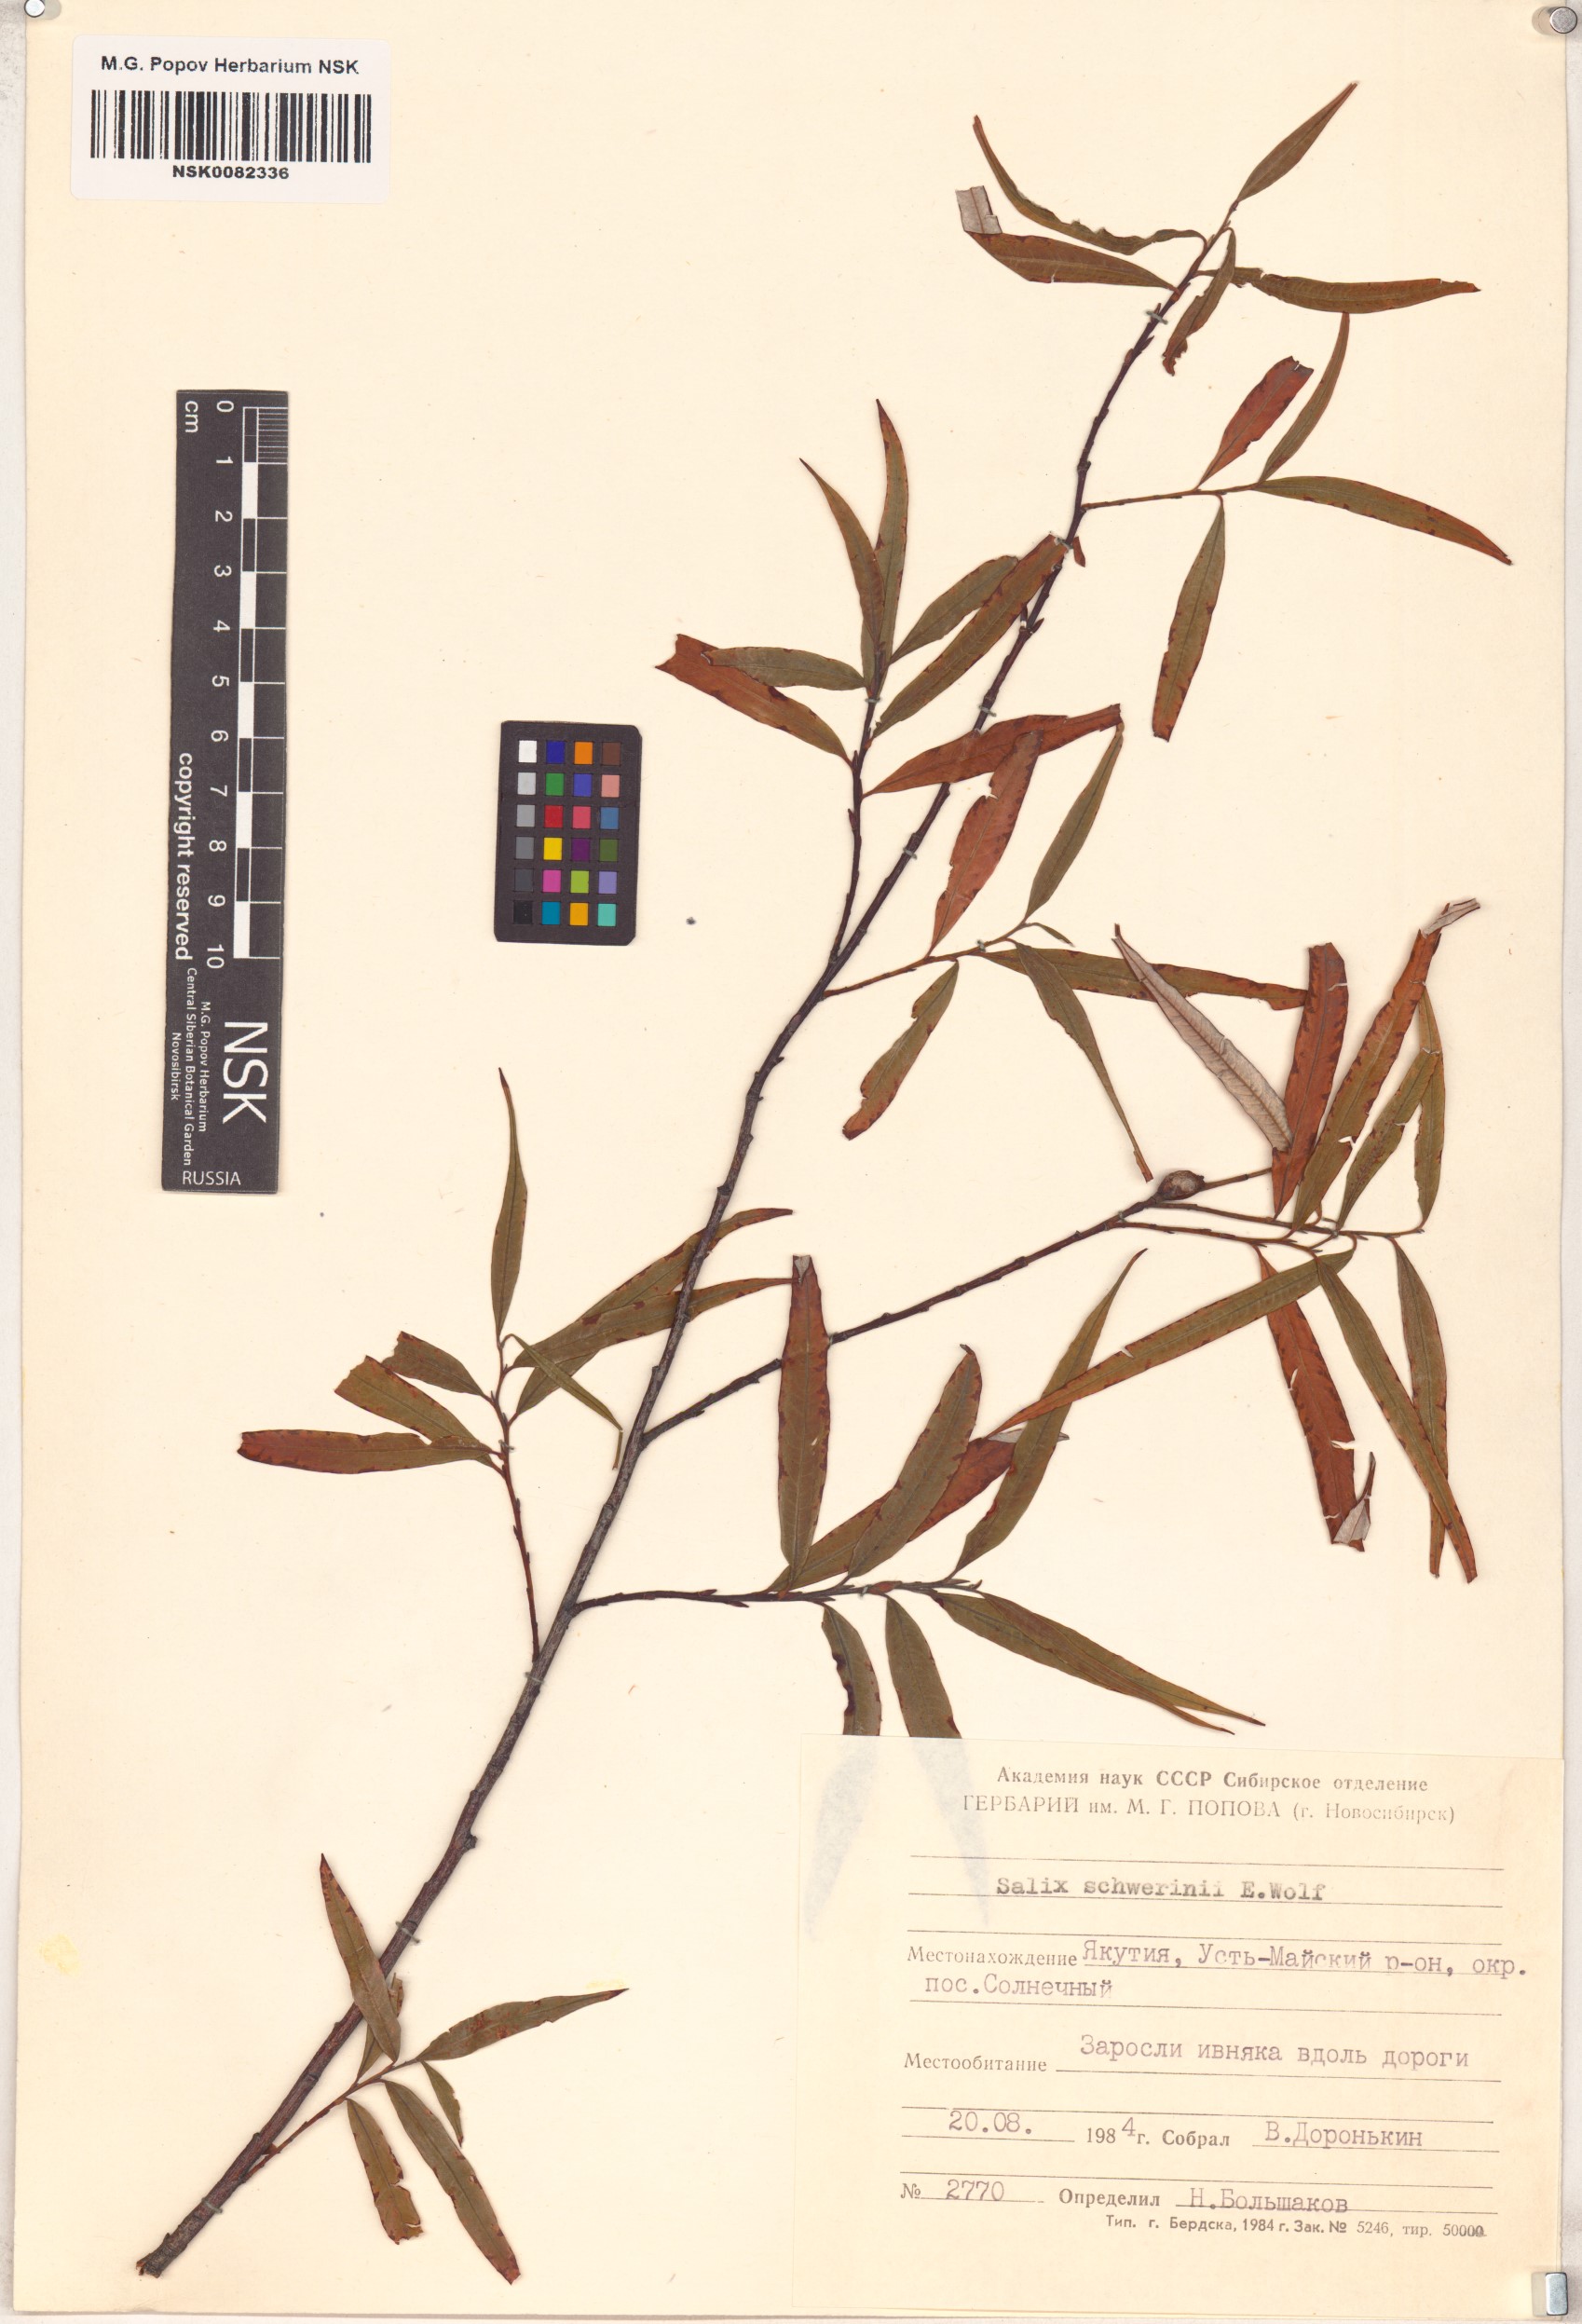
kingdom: Plantae
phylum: Tracheophyta
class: Magnoliopsida
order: Malpighiales
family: Salicaceae
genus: Salix
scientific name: Salix schwerinii
